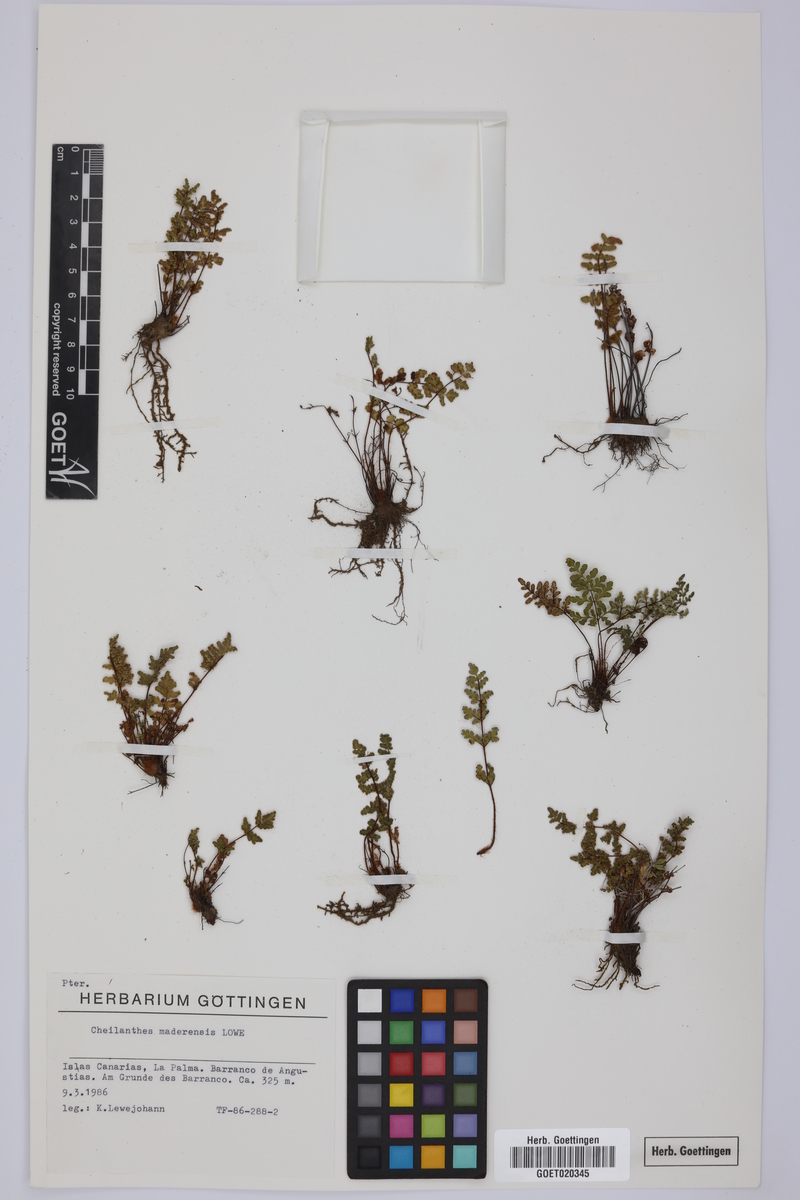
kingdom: Plantae
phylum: Tracheophyta
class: Polypodiopsida
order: Polypodiales
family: Pteridaceae
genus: Oeosporangium
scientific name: Oeosporangium pteridioides
